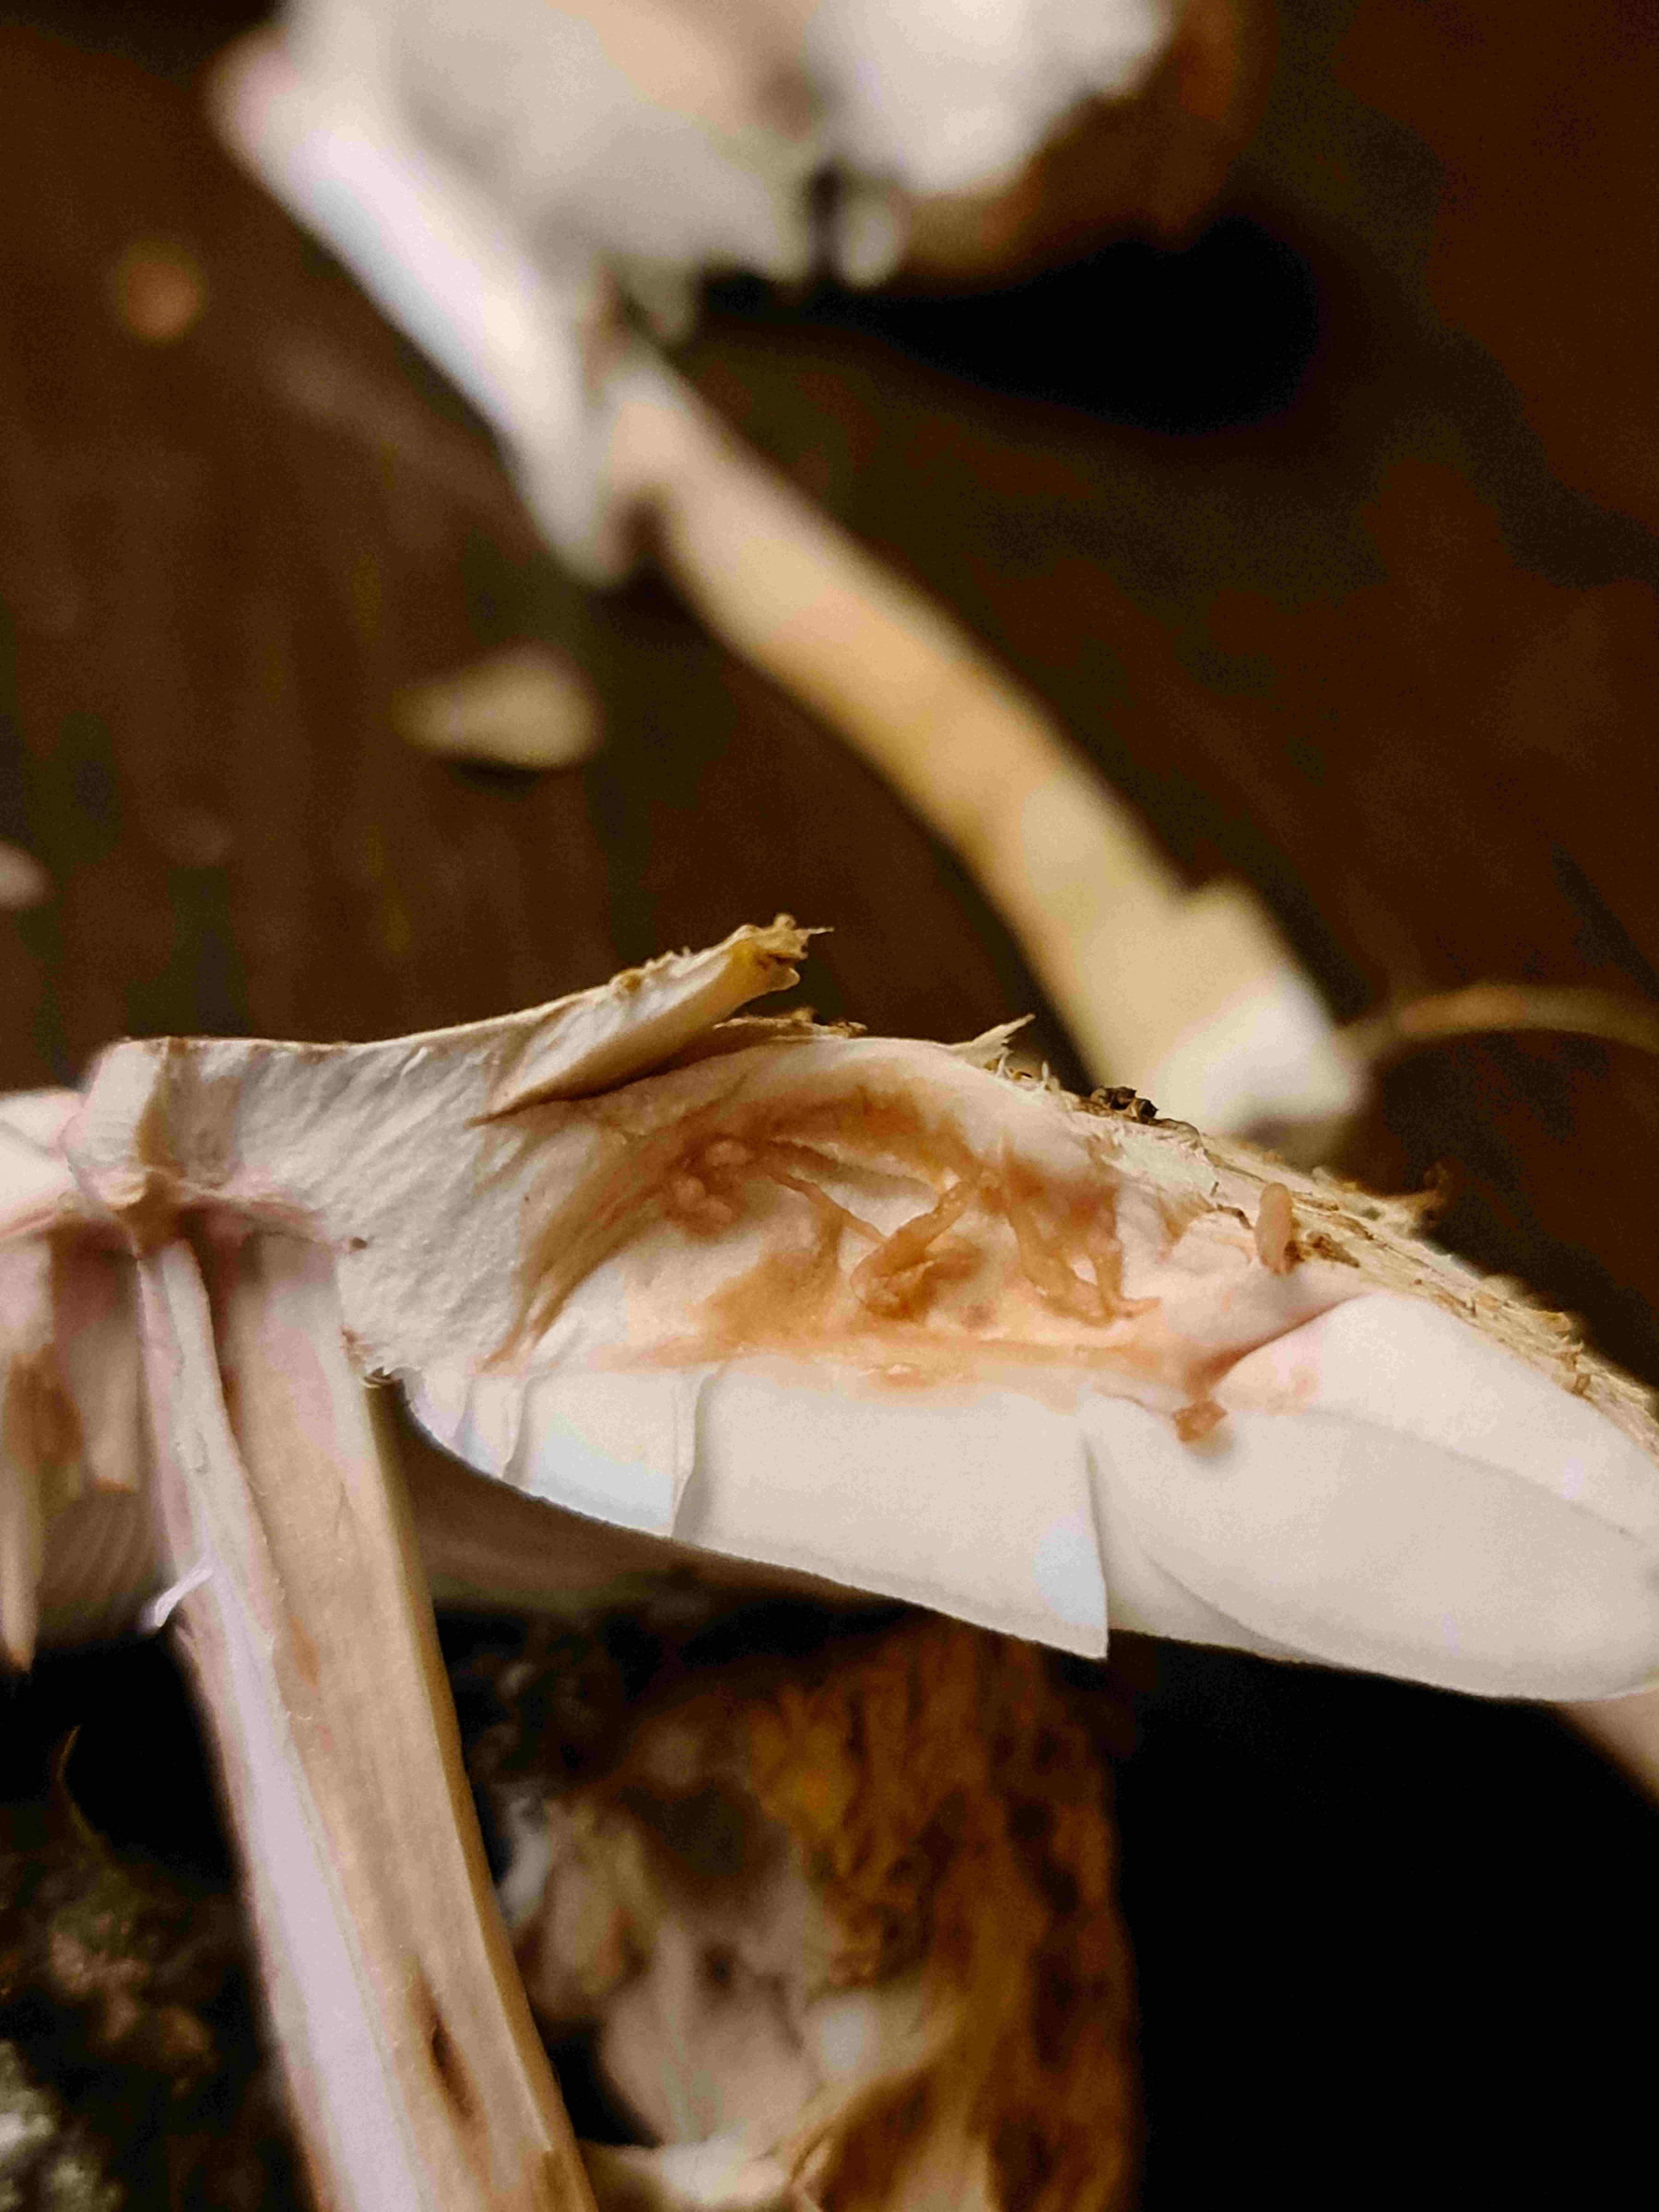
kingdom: Fungi
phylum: Basidiomycota
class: Agaricomycetes
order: Agaricales
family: Agaricaceae
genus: Chlorophyllum
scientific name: Chlorophyllum rhacodes
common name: ægte rabarberhat
